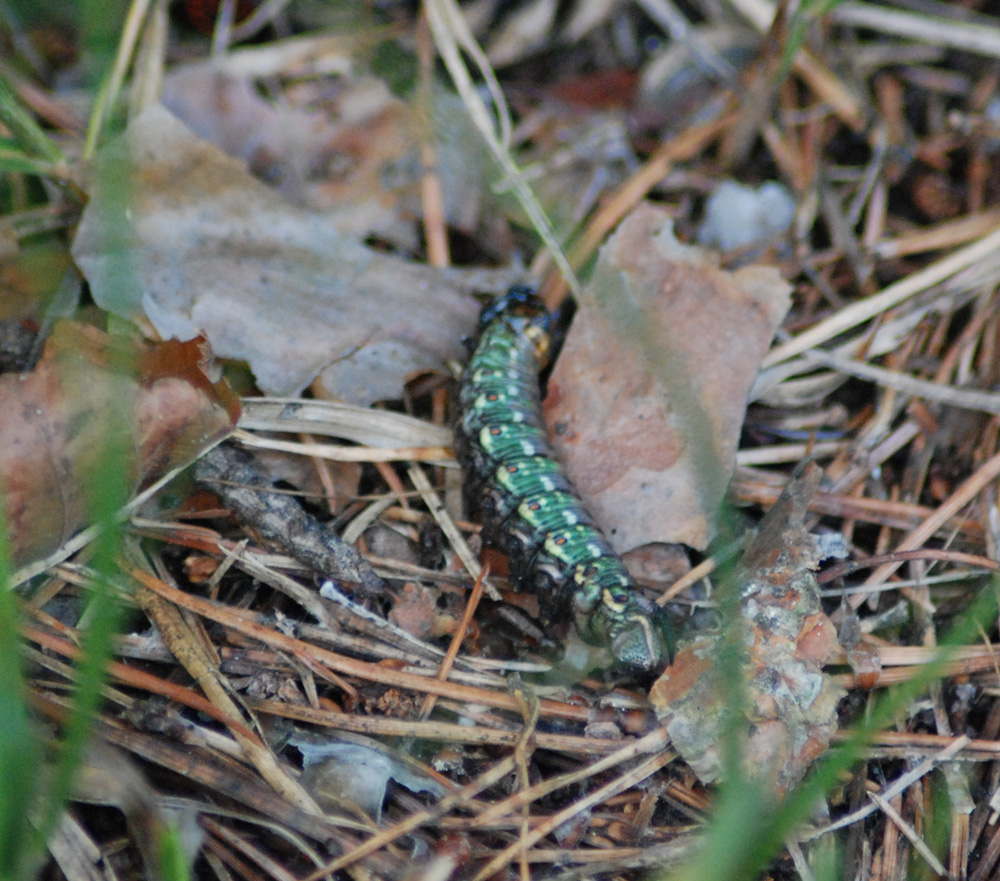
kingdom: Animalia
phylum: Arthropoda
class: Insecta
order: Lepidoptera
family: Sphingidae
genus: Sphinx
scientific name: Sphinx pinastri
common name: Pine hawk-moth
